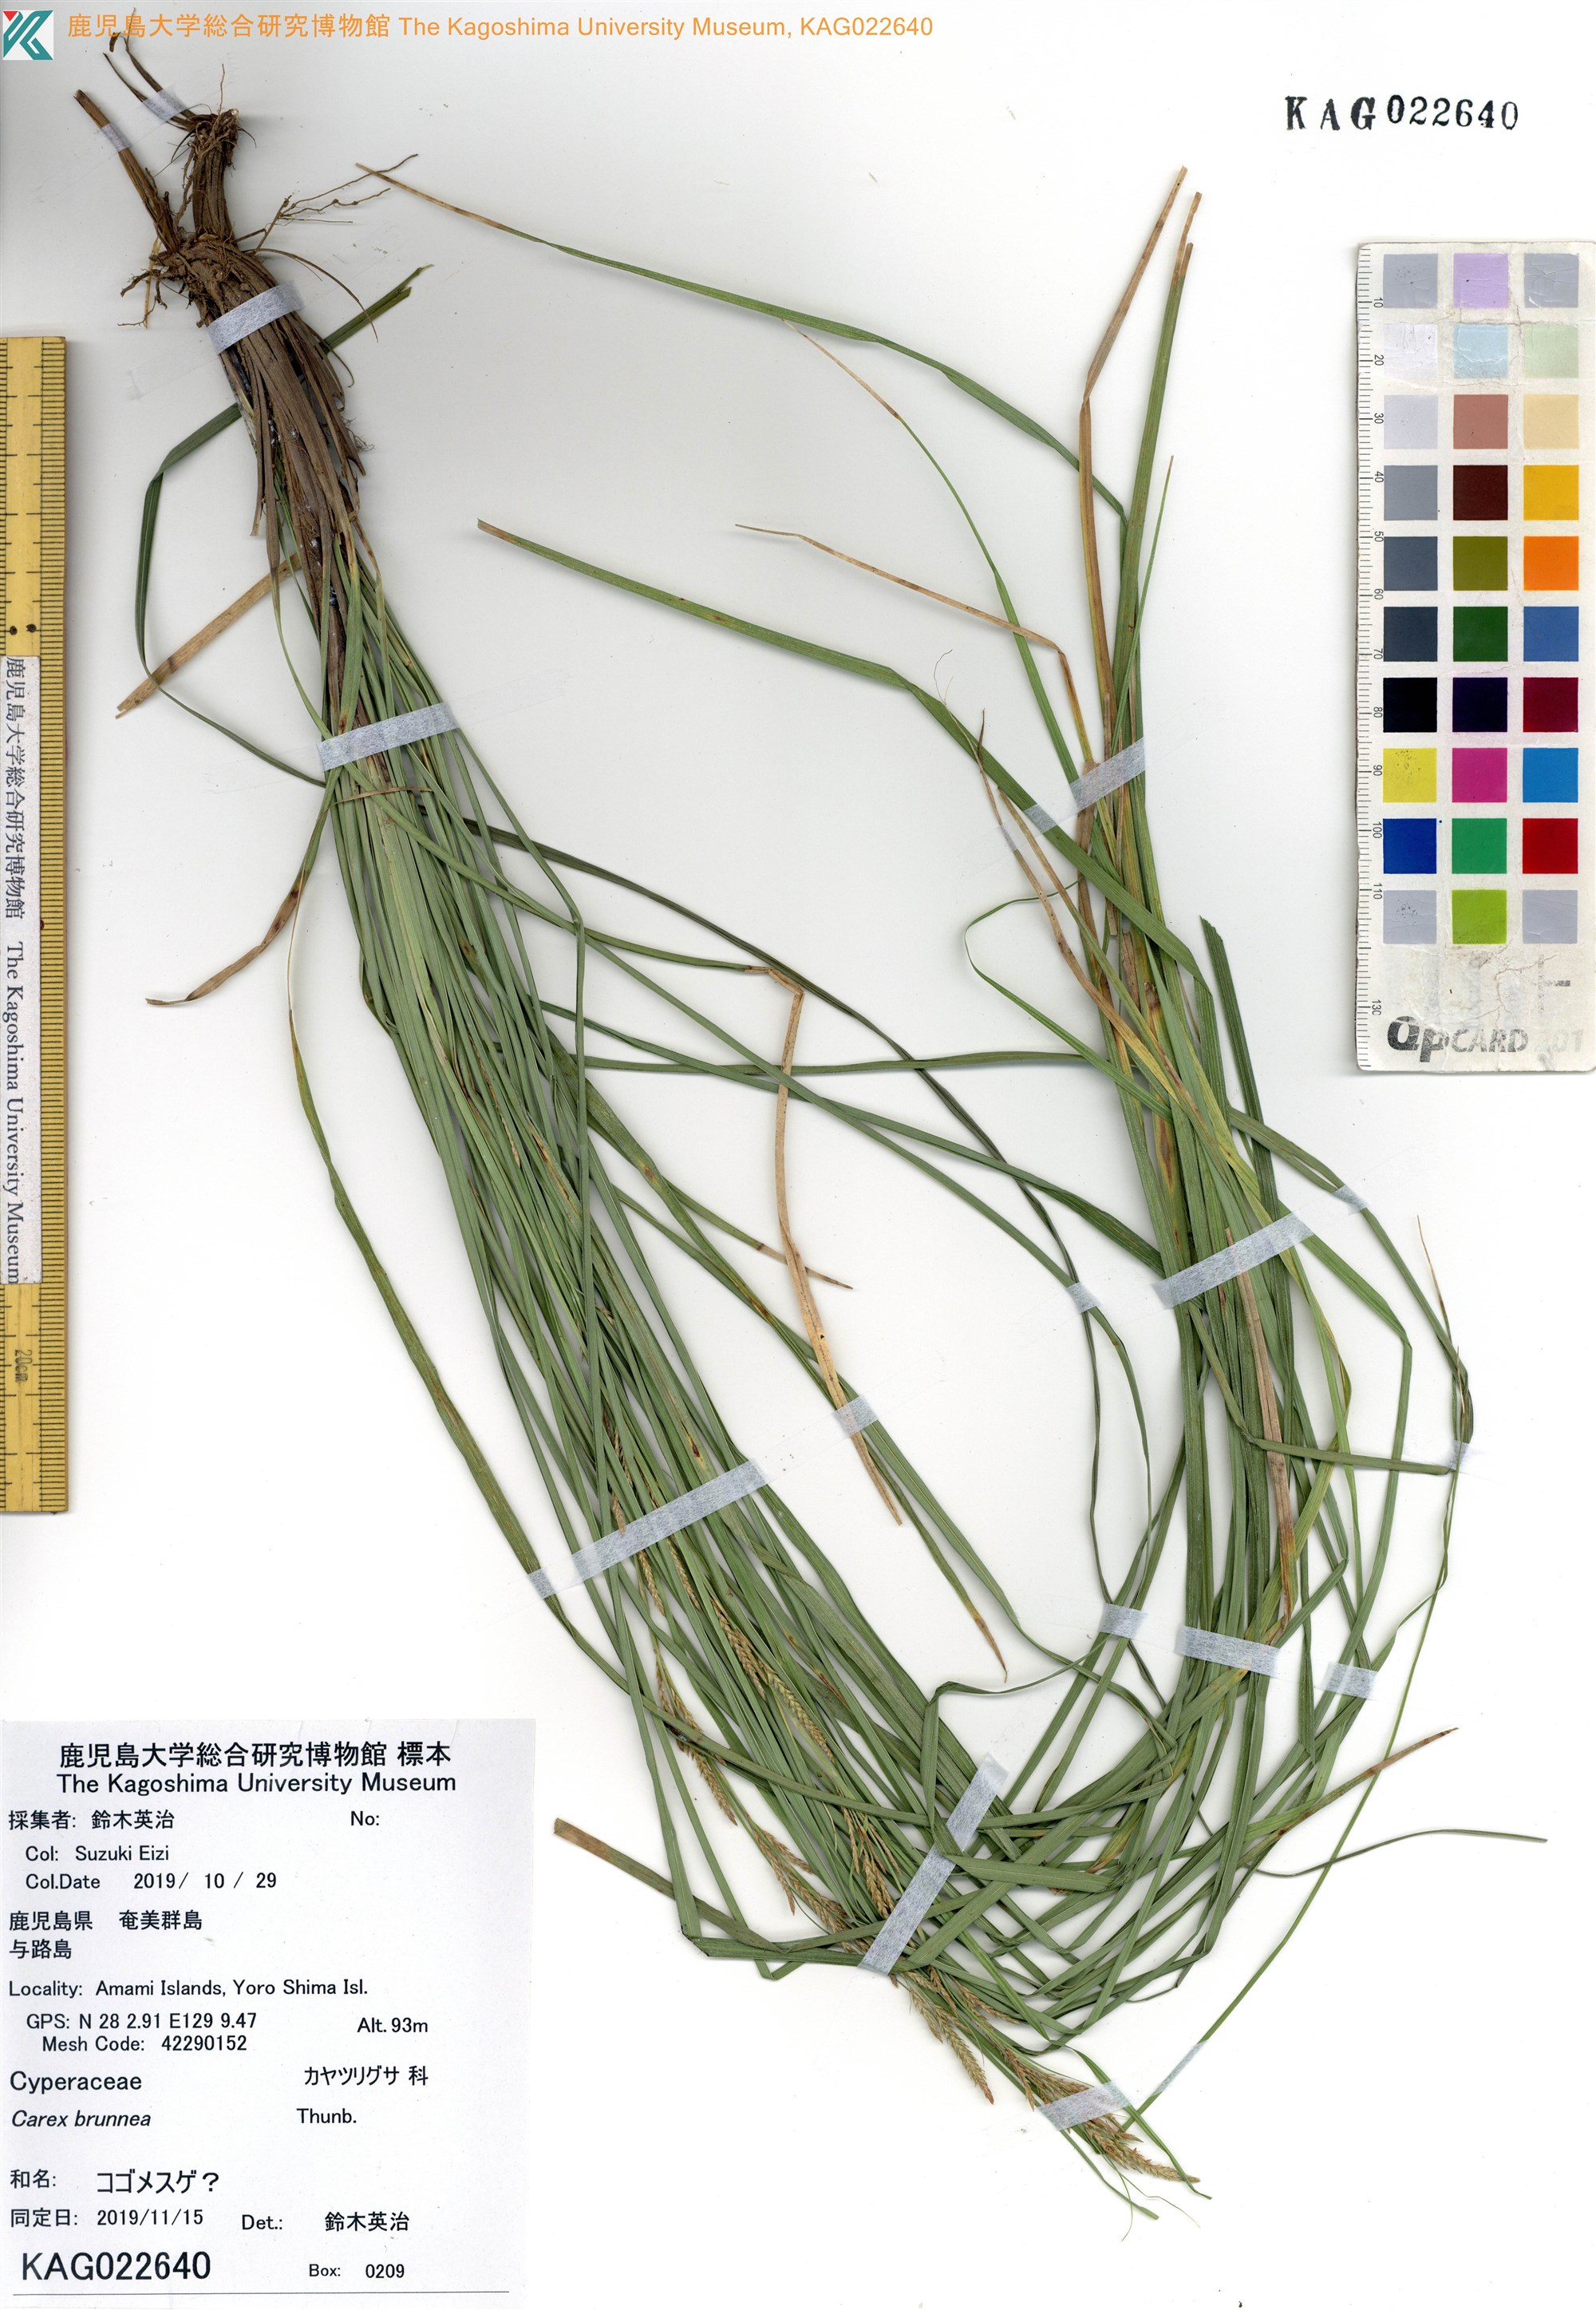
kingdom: Plantae
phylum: Tracheophyta
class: Liliopsida
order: Poales
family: Cyperaceae
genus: Carex
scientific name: Carex
